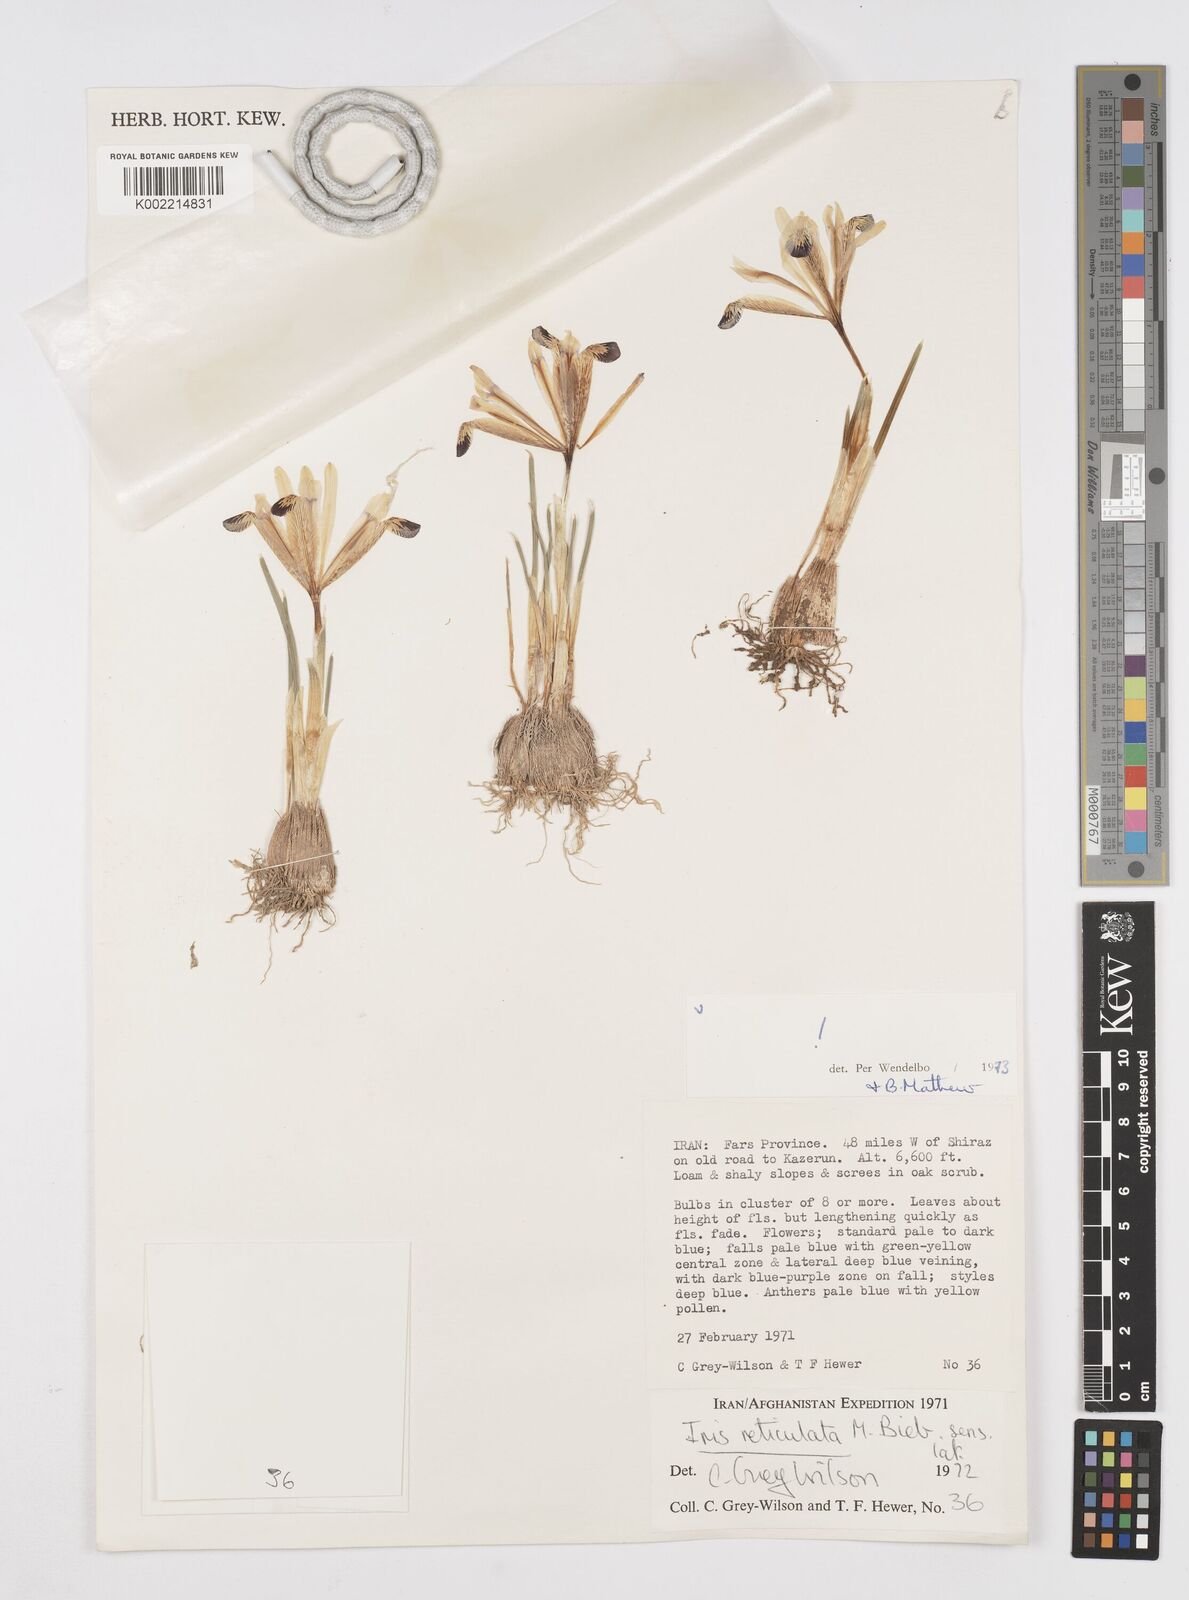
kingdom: Plantae
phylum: Tracheophyta
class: Liliopsida
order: Asparagales
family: Iridaceae
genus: Iris
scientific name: Iris reticulata
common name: Netted iris
